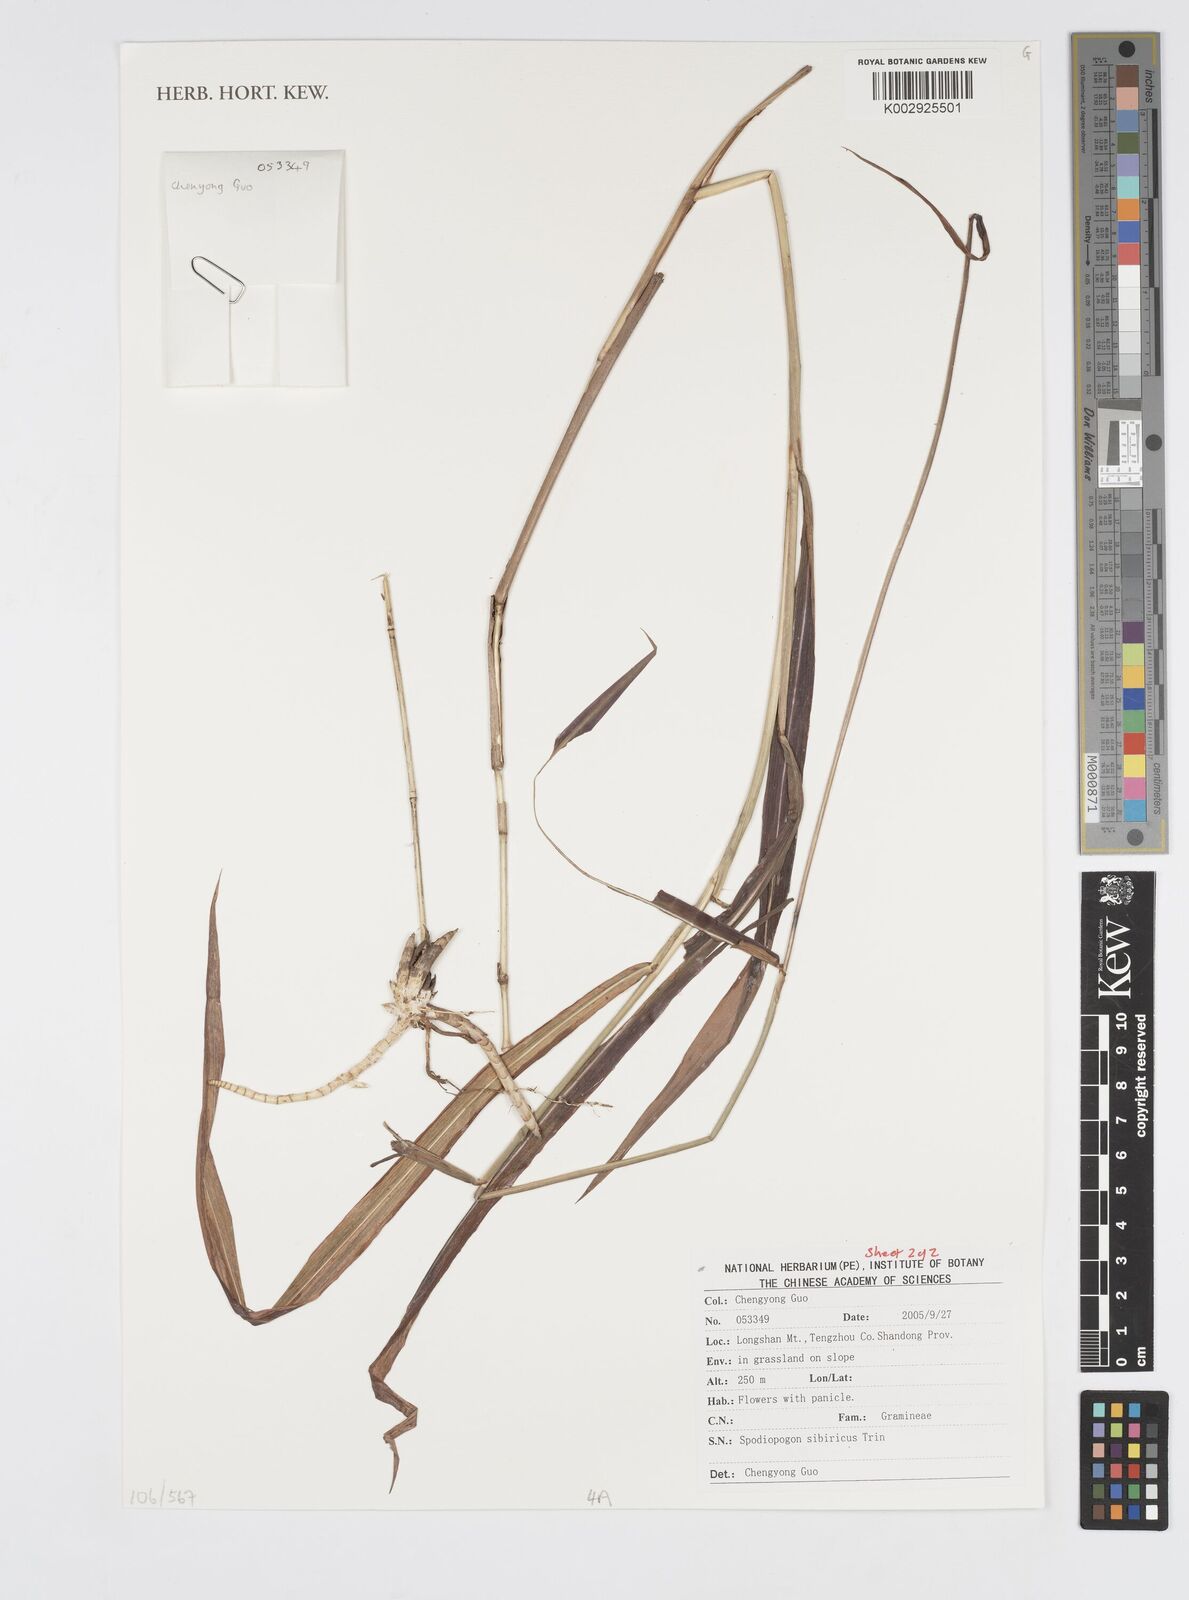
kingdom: Plantae
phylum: Tracheophyta
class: Liliopsida
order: Poales
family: Poaceae
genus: Spodiopogon
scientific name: Spodiopogon sibiricus
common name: Siberian graybeard
